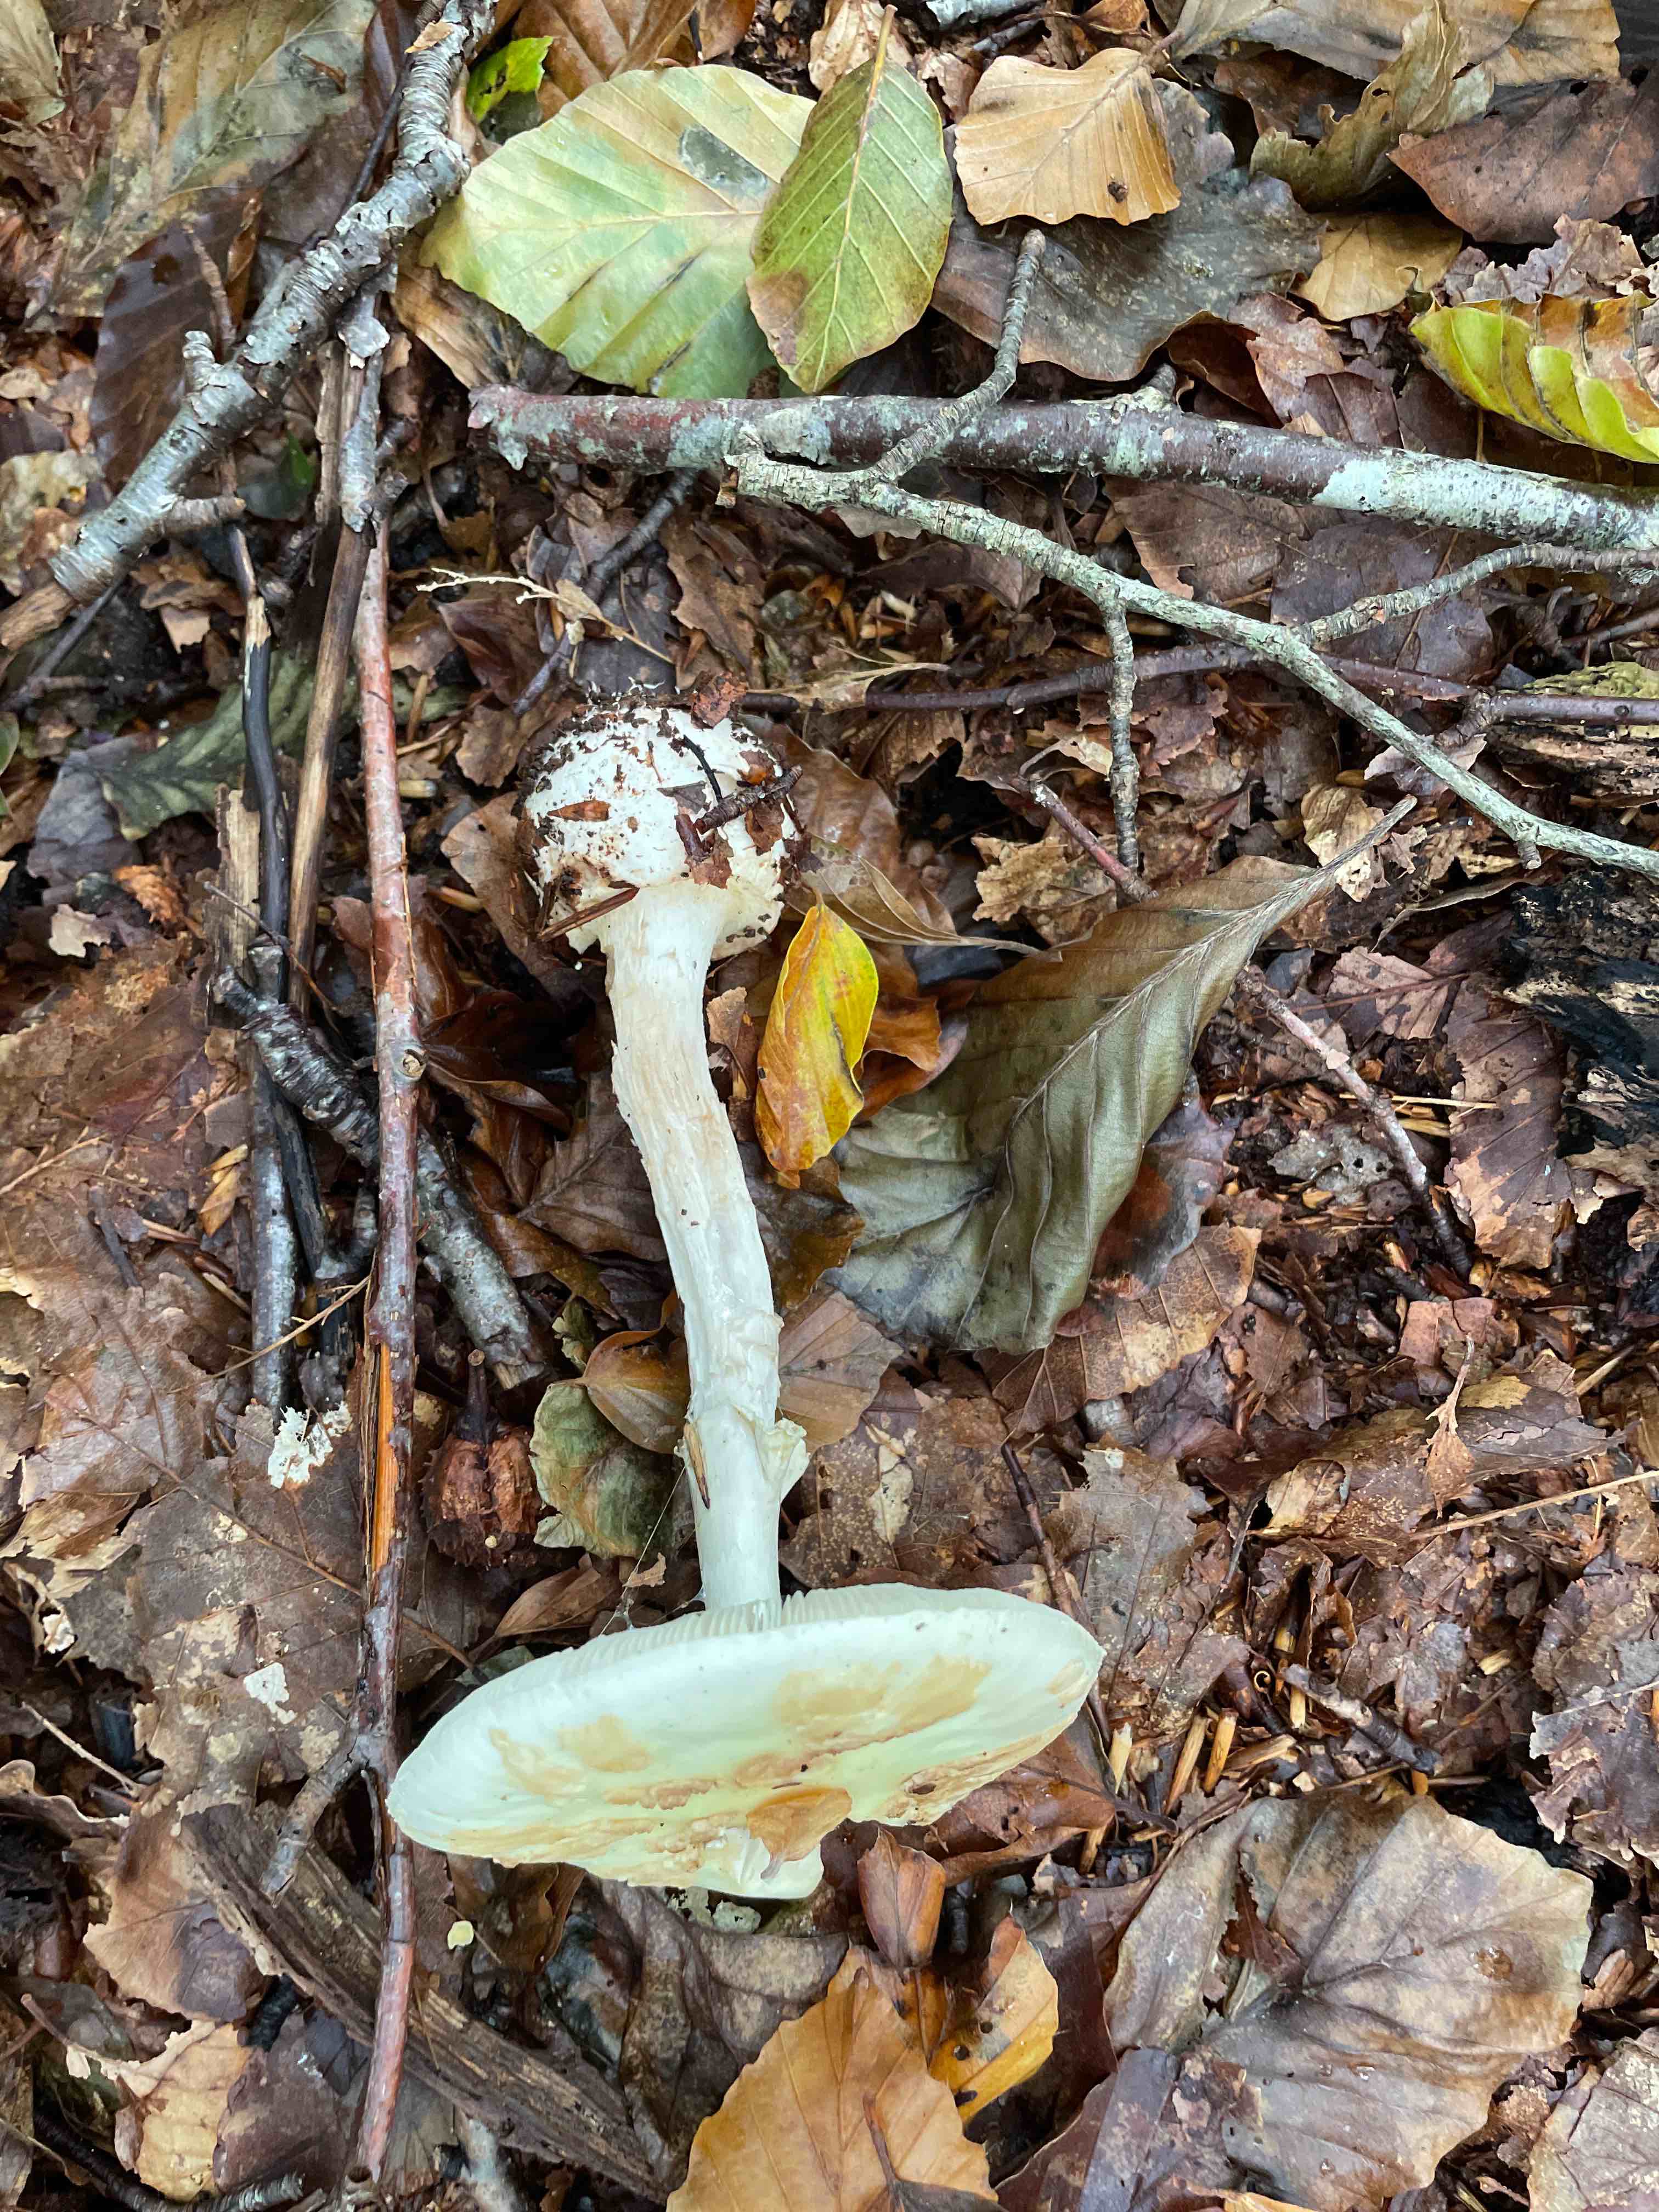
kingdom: Fungi
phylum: Basidiomycota
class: Agaricomycetes
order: Agaricales
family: Amanitaceae
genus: Amanita
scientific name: Amanita citrina
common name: kugleknoldet fluesvamp
